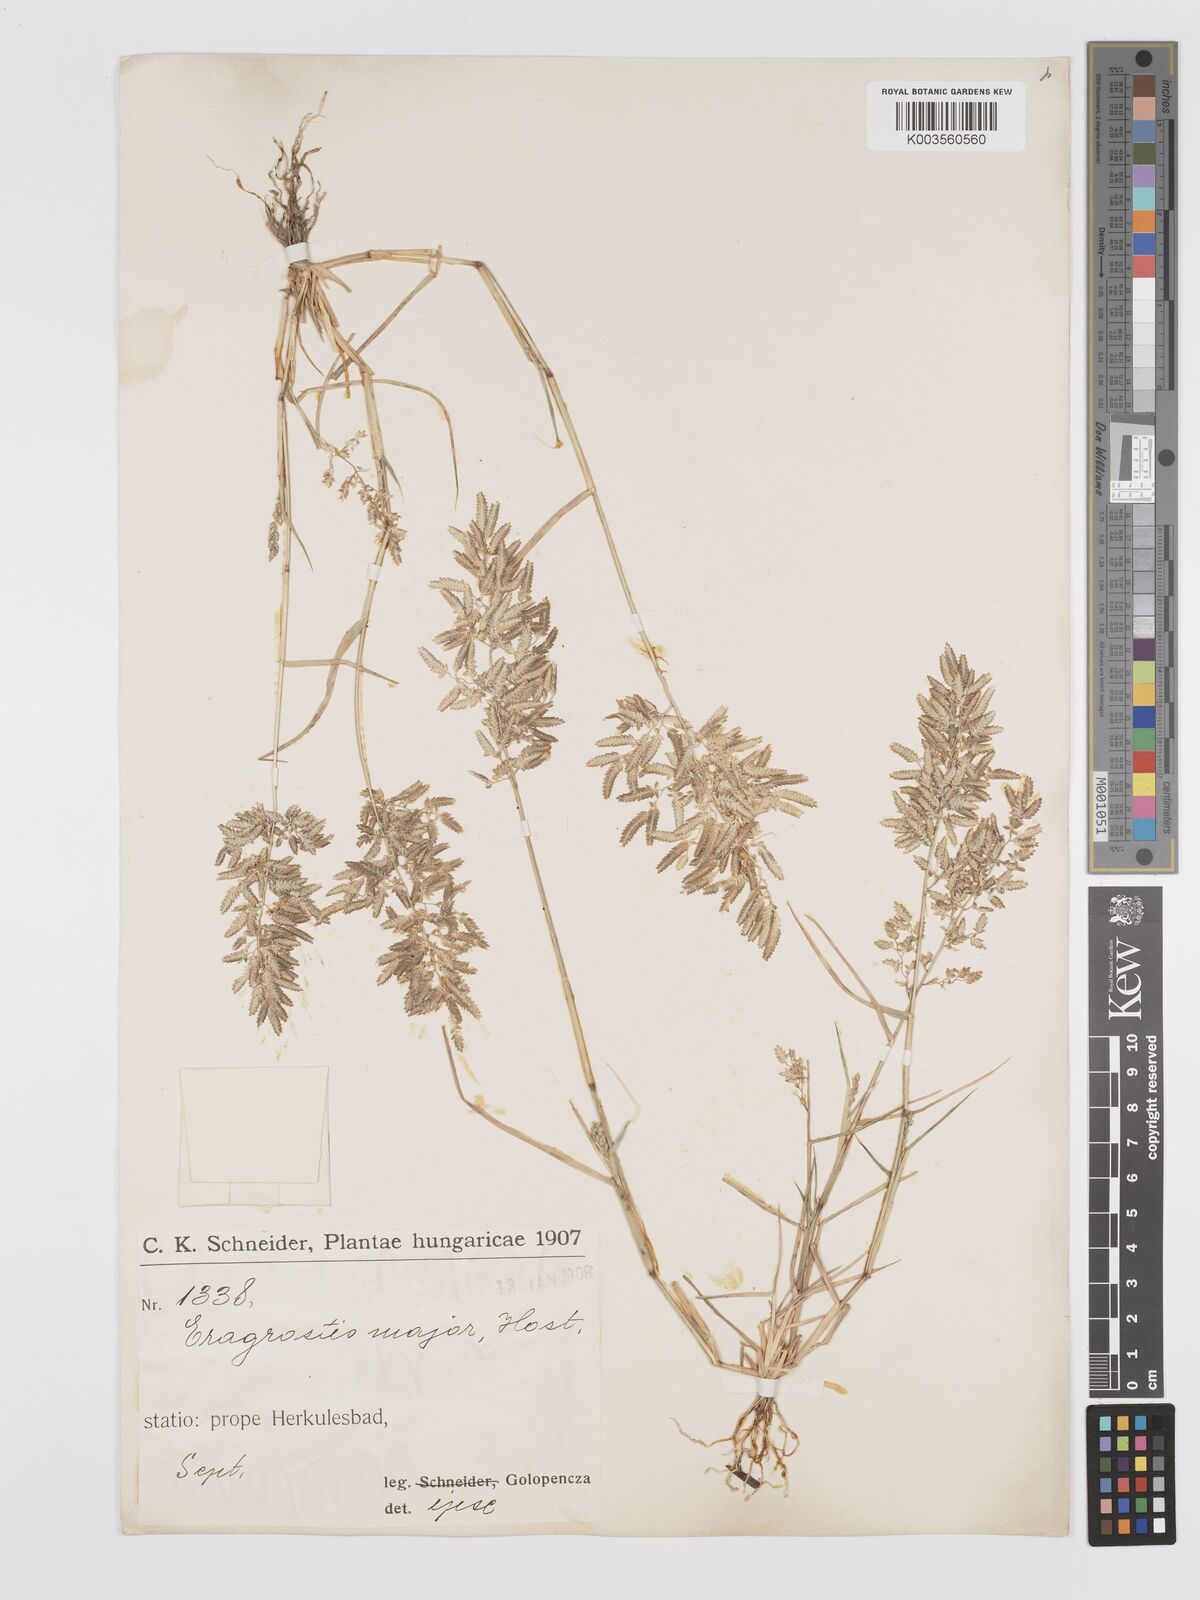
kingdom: Plantae
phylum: Tracheophyta
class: Liliopsida
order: Poales
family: Poaceae
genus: Eragrostis
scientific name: Eragrostis cilianensis
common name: Stinkgrass
